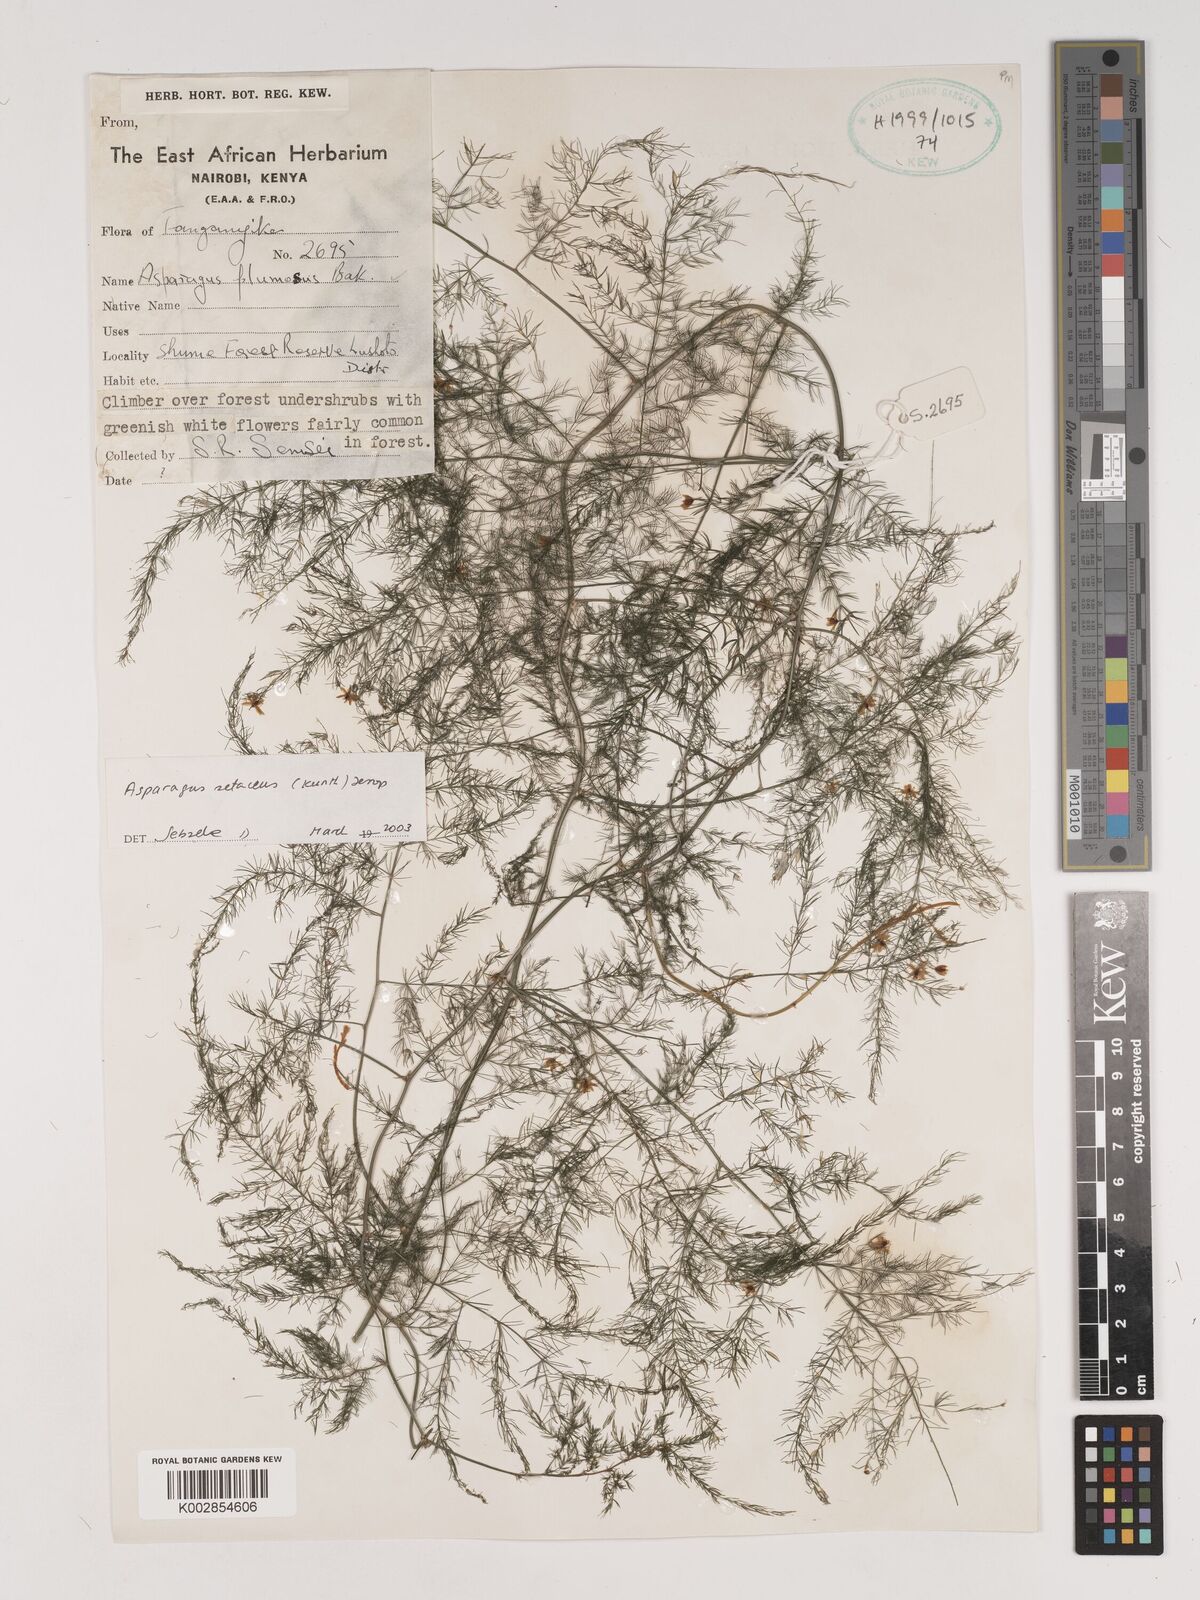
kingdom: Plantae
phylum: Tracheophyta
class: Liliopsida
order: Asparagales
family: Asparagaceae
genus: Asparagus
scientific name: Asparagus setaceus
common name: Common asparagus fern
